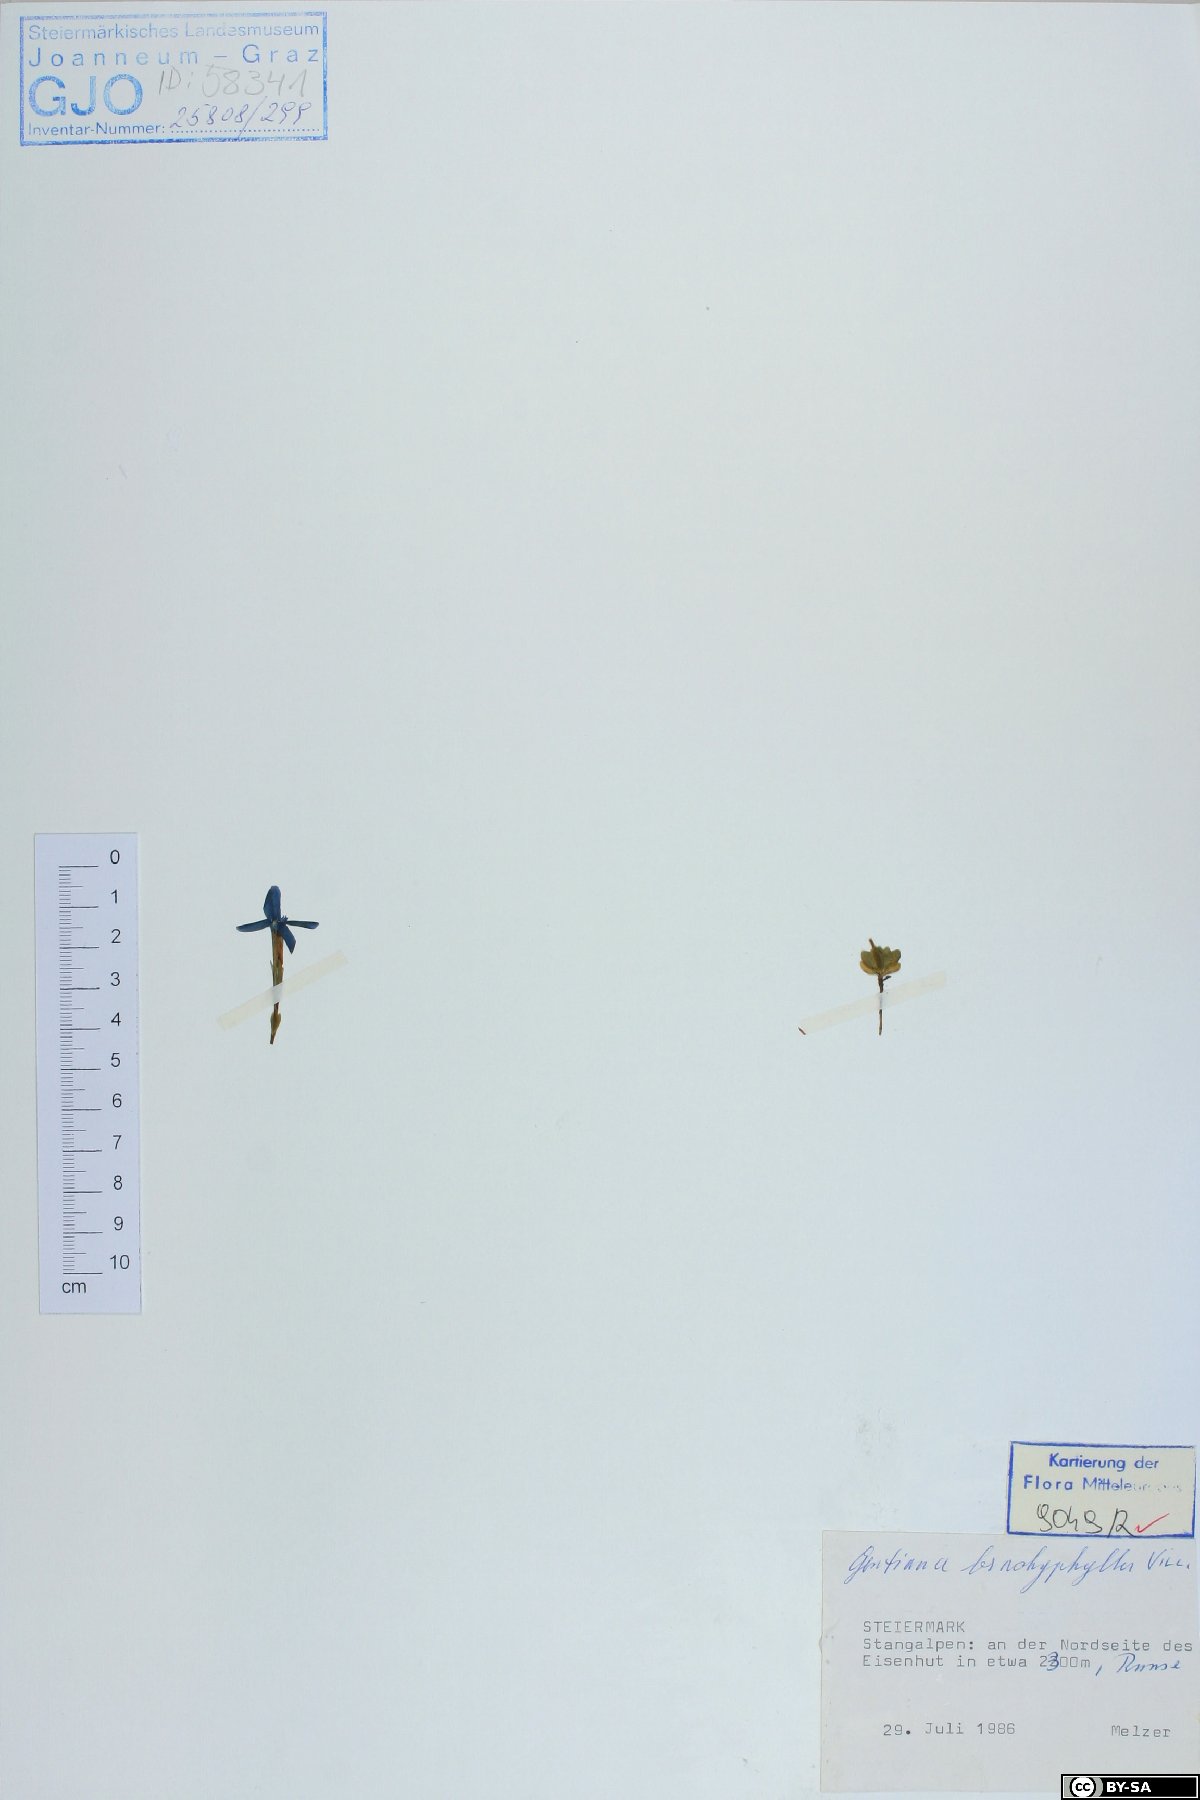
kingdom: Plantae
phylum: Tracheophyta
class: Magnoliopsida
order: Gentianales
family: Gentianaceae
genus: Gentiana
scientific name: Gentiana brachyphylla
